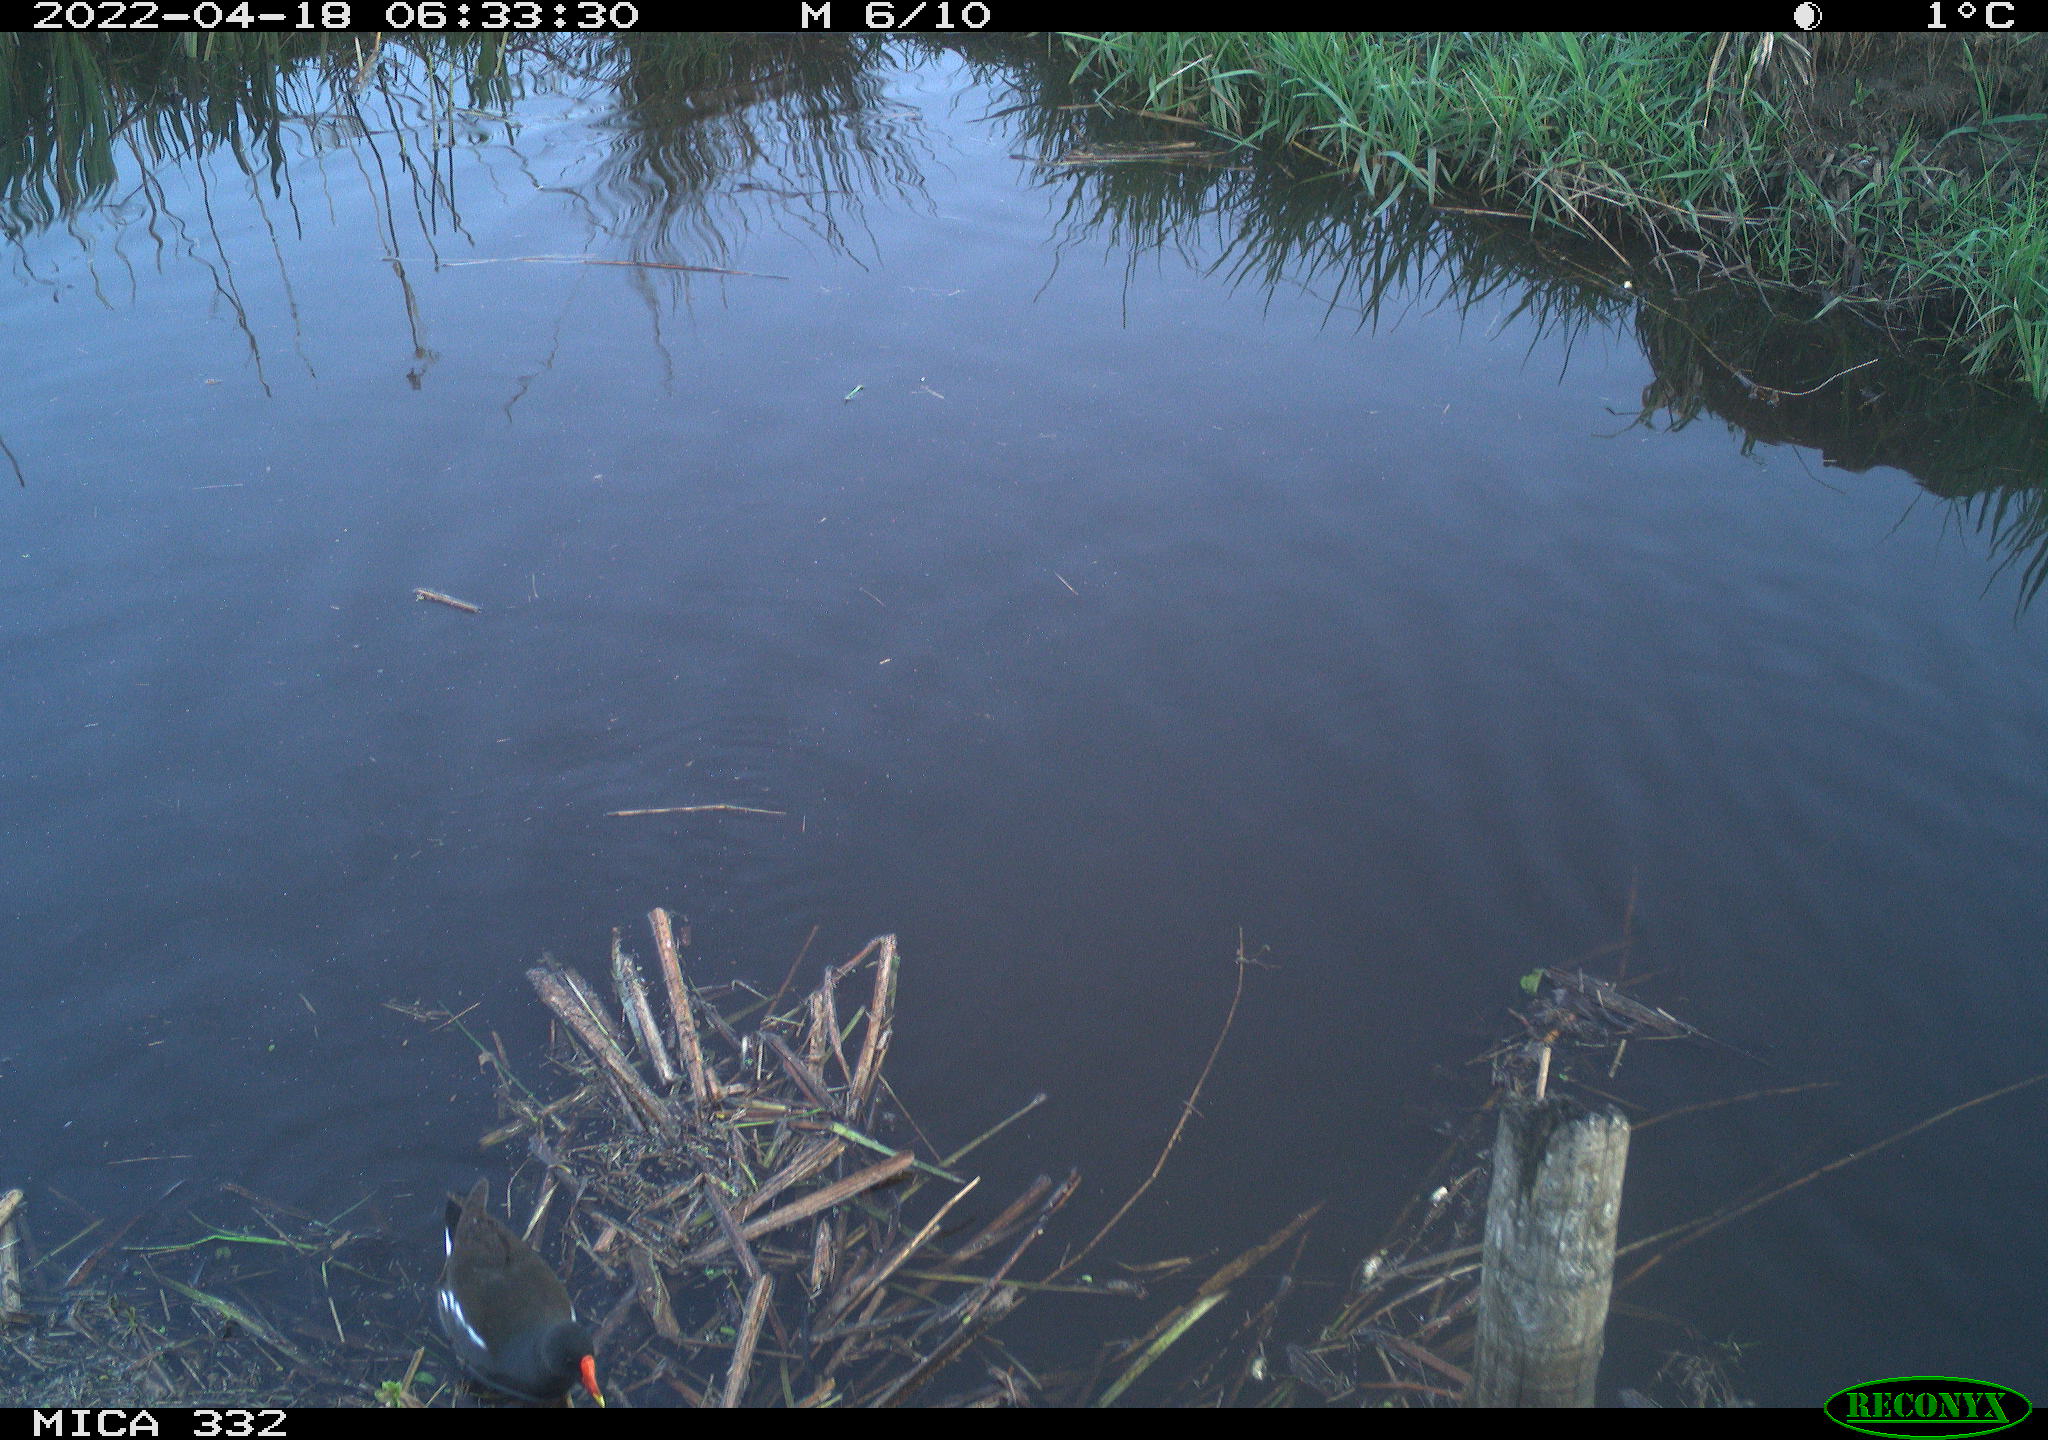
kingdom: Animalia
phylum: Chordata
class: Aves
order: Gruiformes
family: Rallidae
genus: Gallinula
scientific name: Gallinula chloropus
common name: Common moorhen
